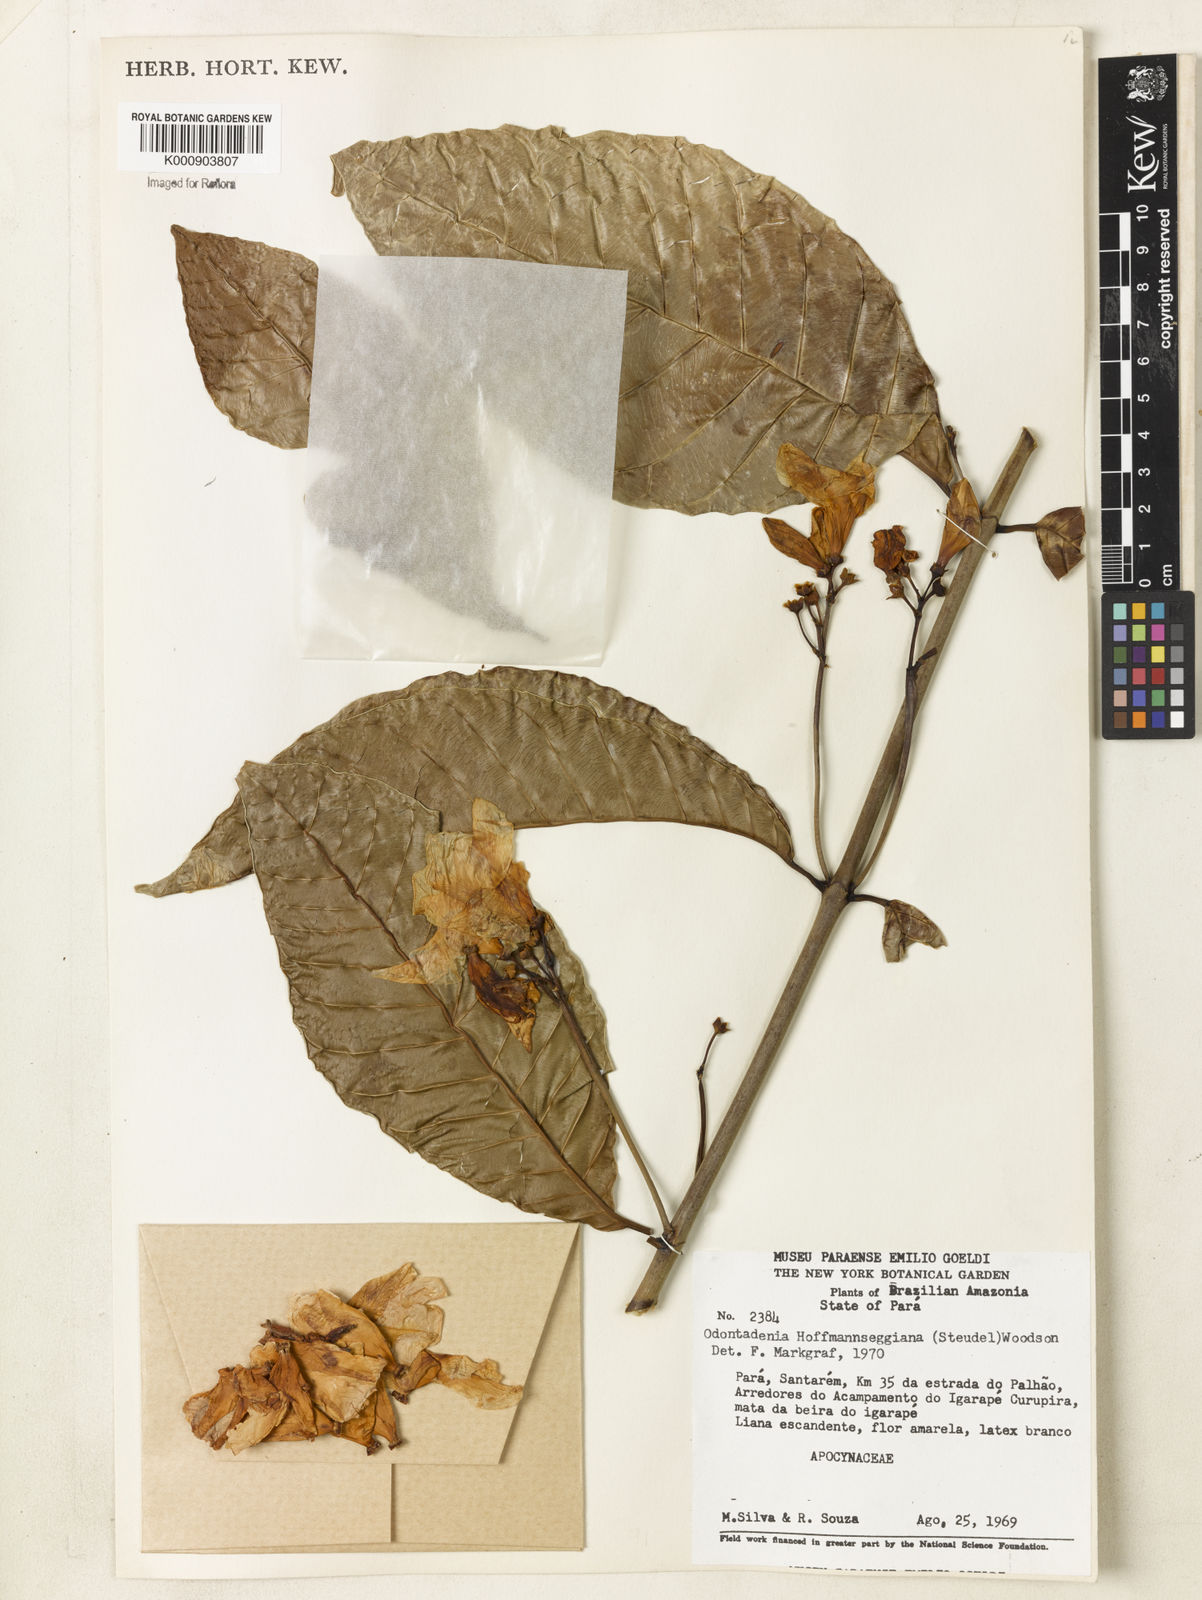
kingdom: Plantae
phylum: Tracheophyta
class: Magnoliopsida
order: Gentianales
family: Apocynaceae
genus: Odontadenia
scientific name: Odontadenia semidigyna
